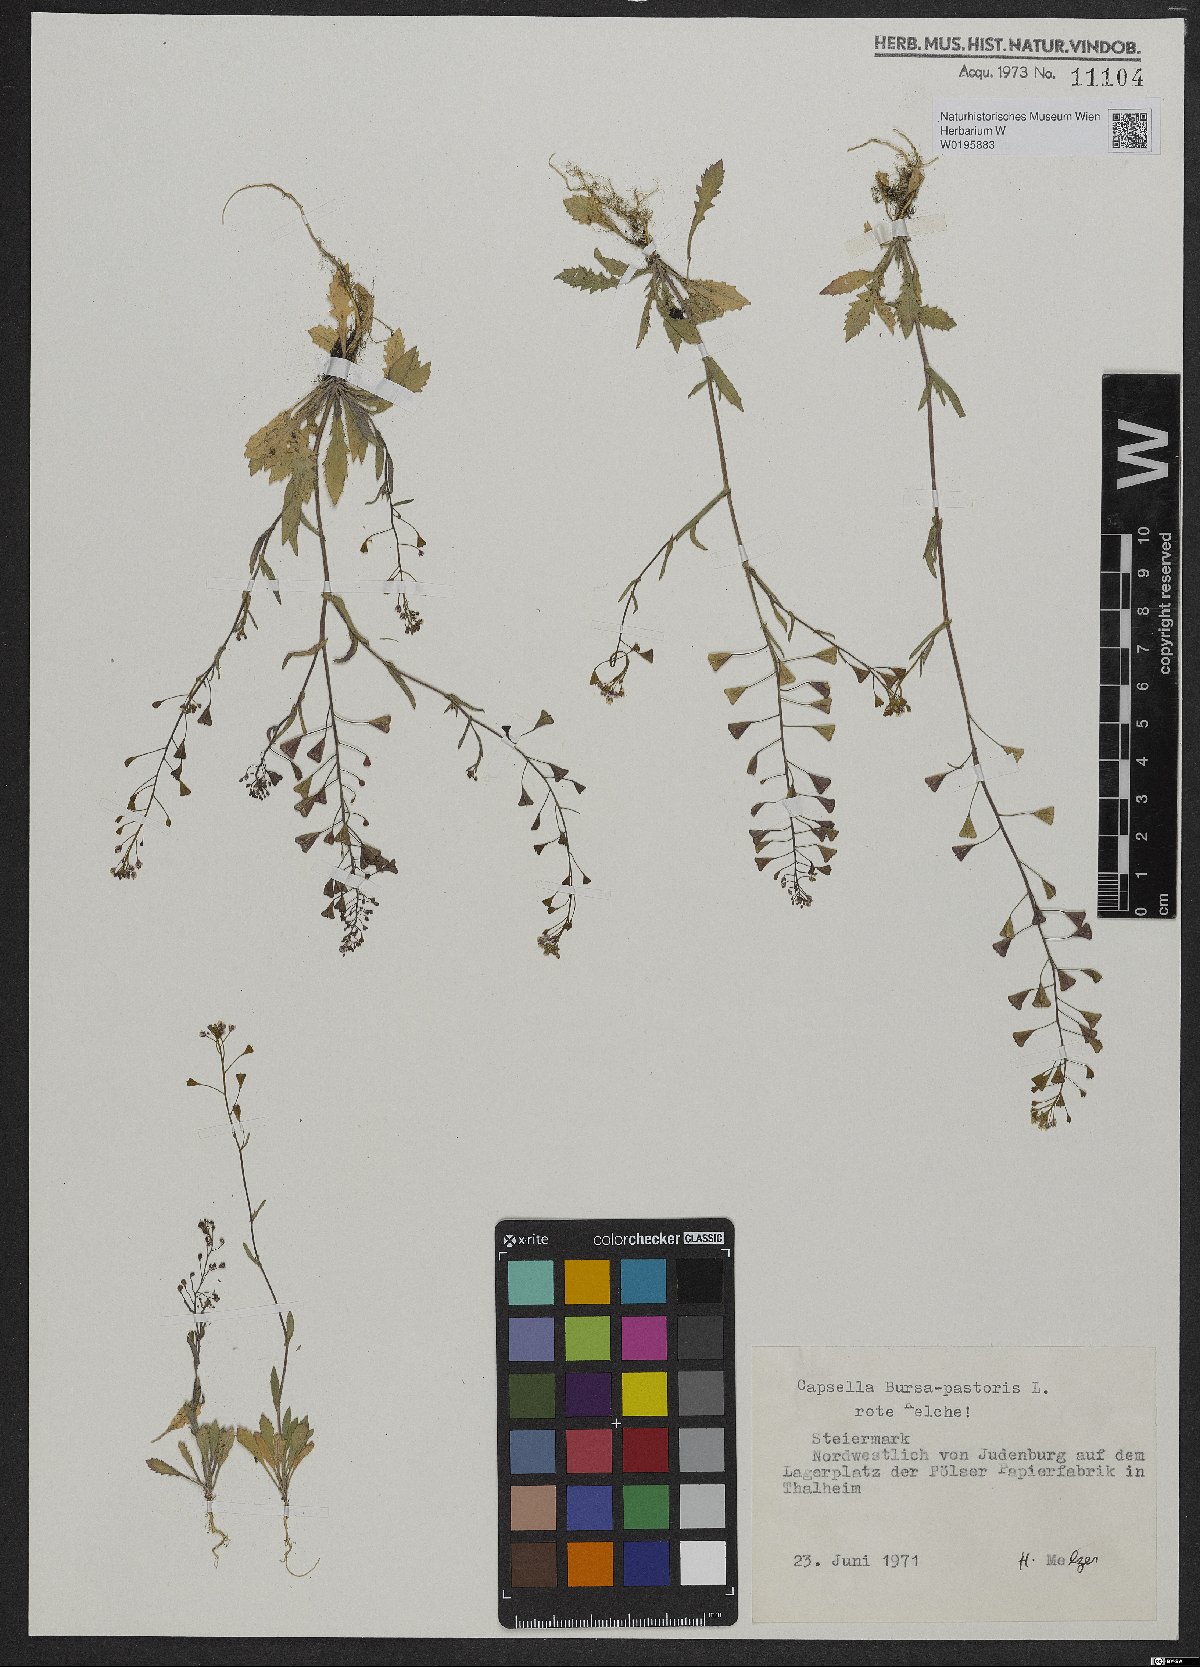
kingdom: Plantae
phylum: Tracheophyta
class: Magnoliopsida
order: Brassicales
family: Brassicaceae
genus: Capsella
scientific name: Capsella bursa-pastoris
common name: Shepherd's purse
